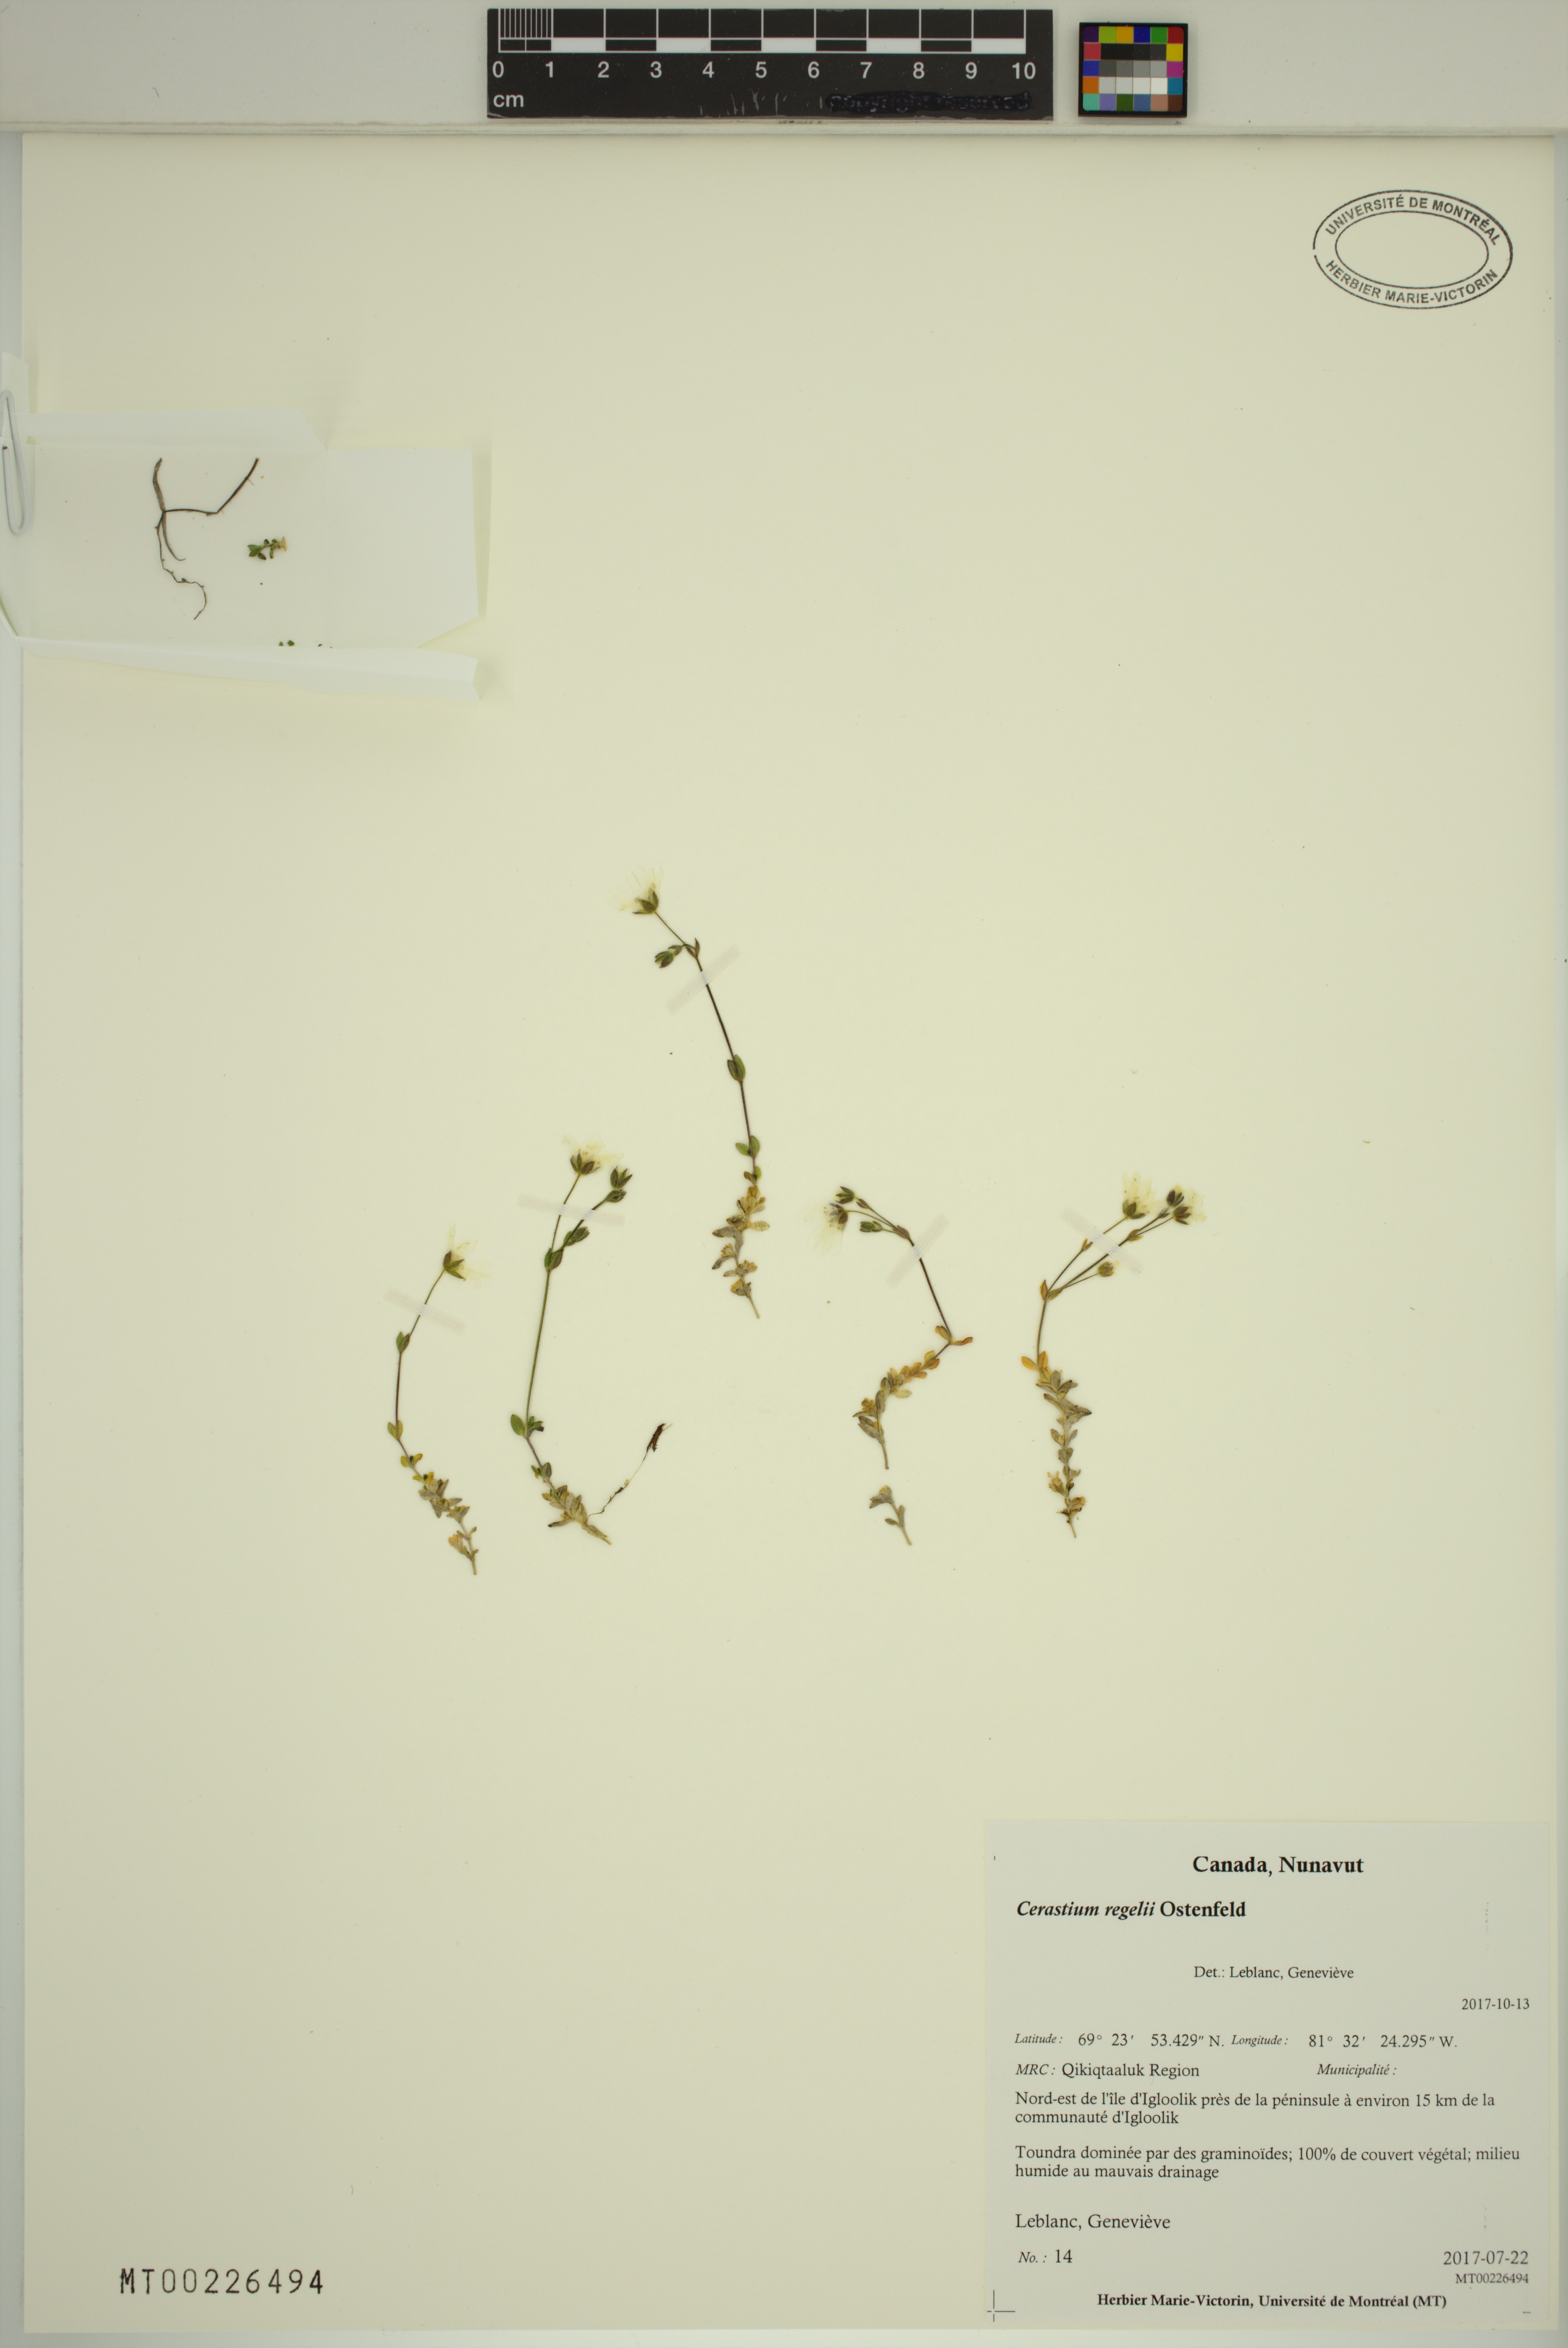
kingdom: Plantae
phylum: Tracheophyta
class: Magnoliopsida
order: Caryophyllales
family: Caryophyllaceae
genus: Cerastium
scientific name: Cerastium regelii
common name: Regel's chickweed
